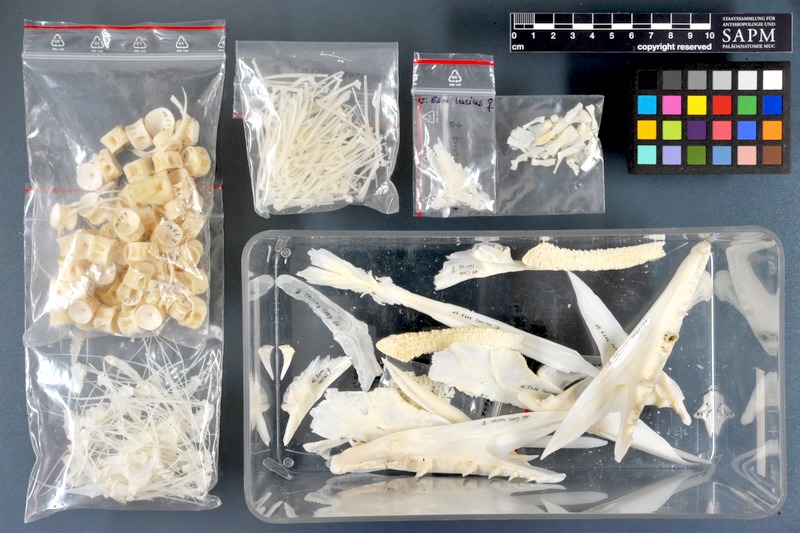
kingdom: Animalia
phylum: Chordata
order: Esociformes
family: Esocidae
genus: Esox
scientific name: Esox lucius
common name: Northern pike
